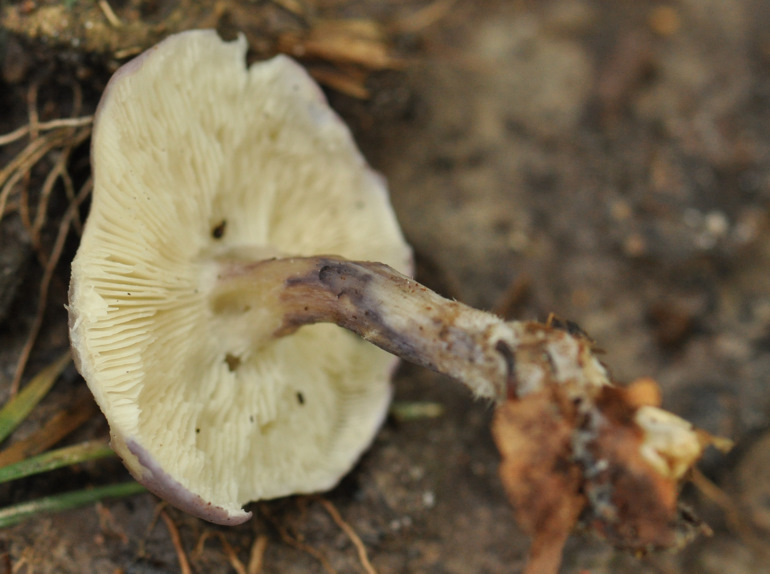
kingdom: Fungi
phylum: Basidiomycota
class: Agaricomycetes
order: Agaricales
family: Lyophyllaceae
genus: Calocybe
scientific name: Calocybe ionides
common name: violblå fagerhat
